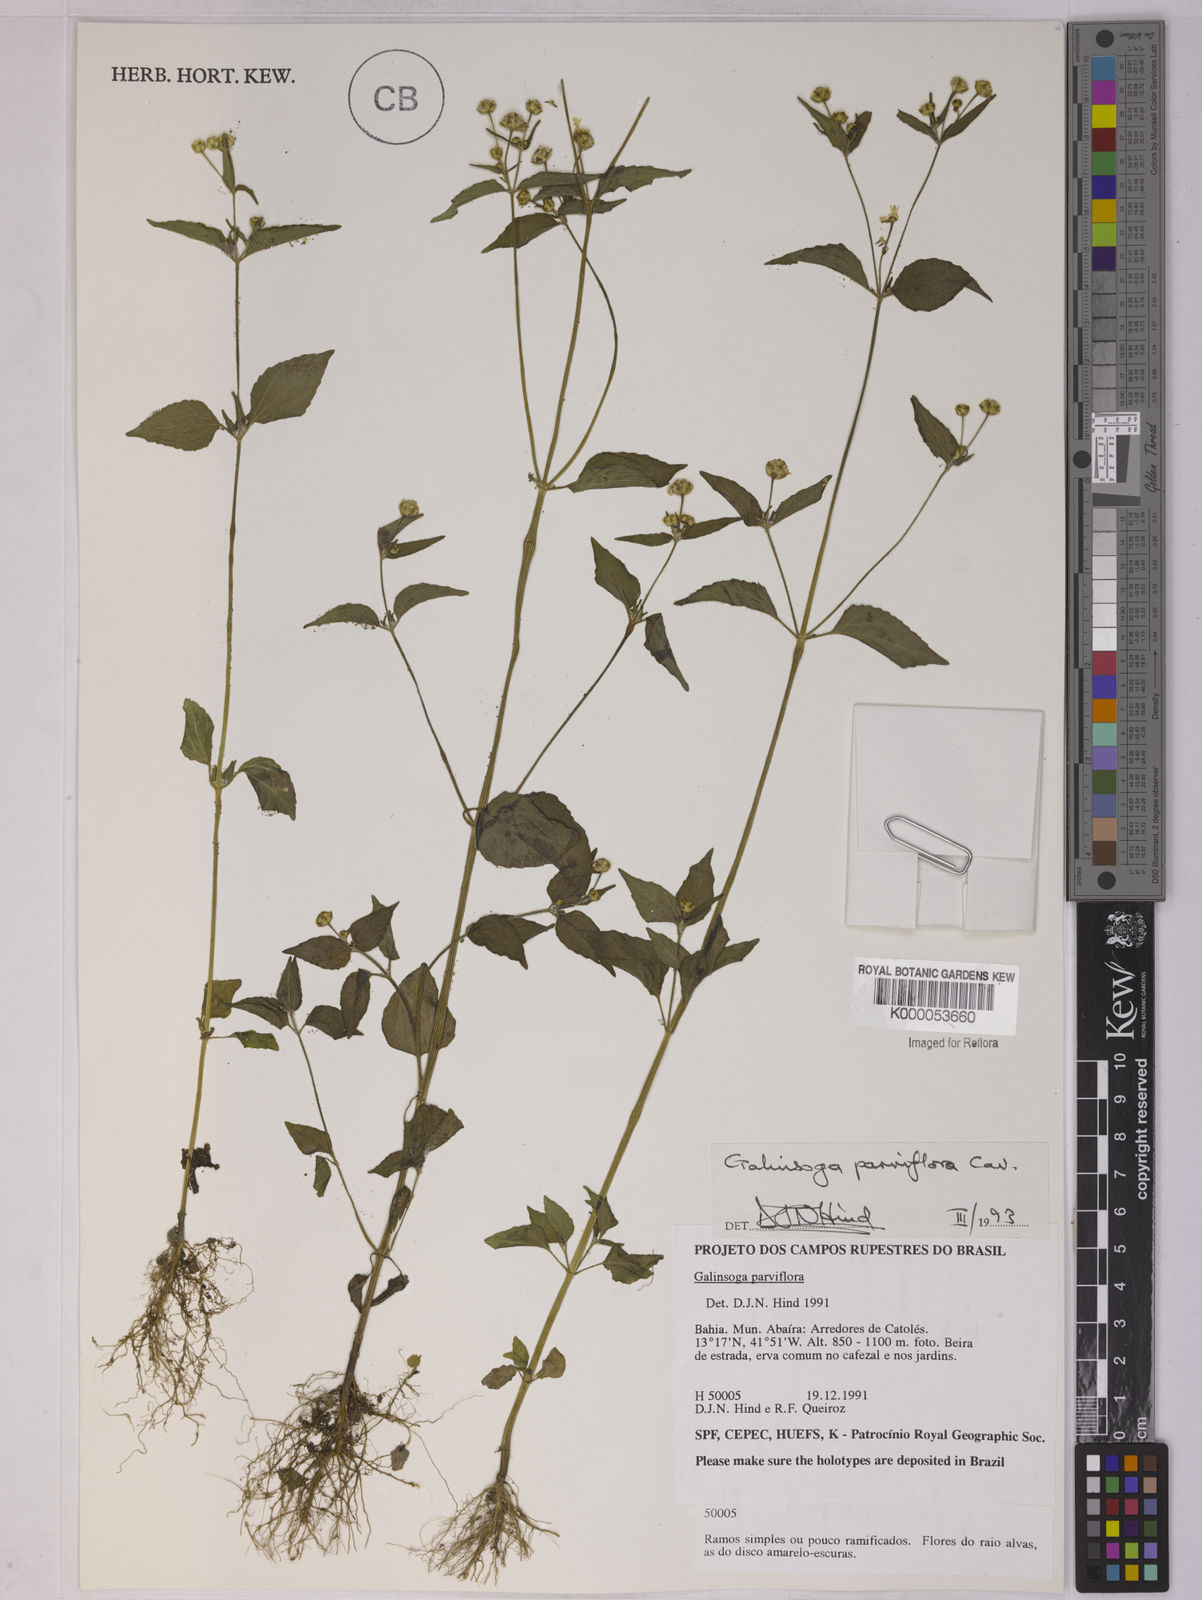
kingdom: Plantae
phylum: Tracheophyta
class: Magnoliopsida
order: Asterales
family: Asteraceae
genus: Galinsoga
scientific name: Galinsoga parviflora
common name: Gallant soldier
